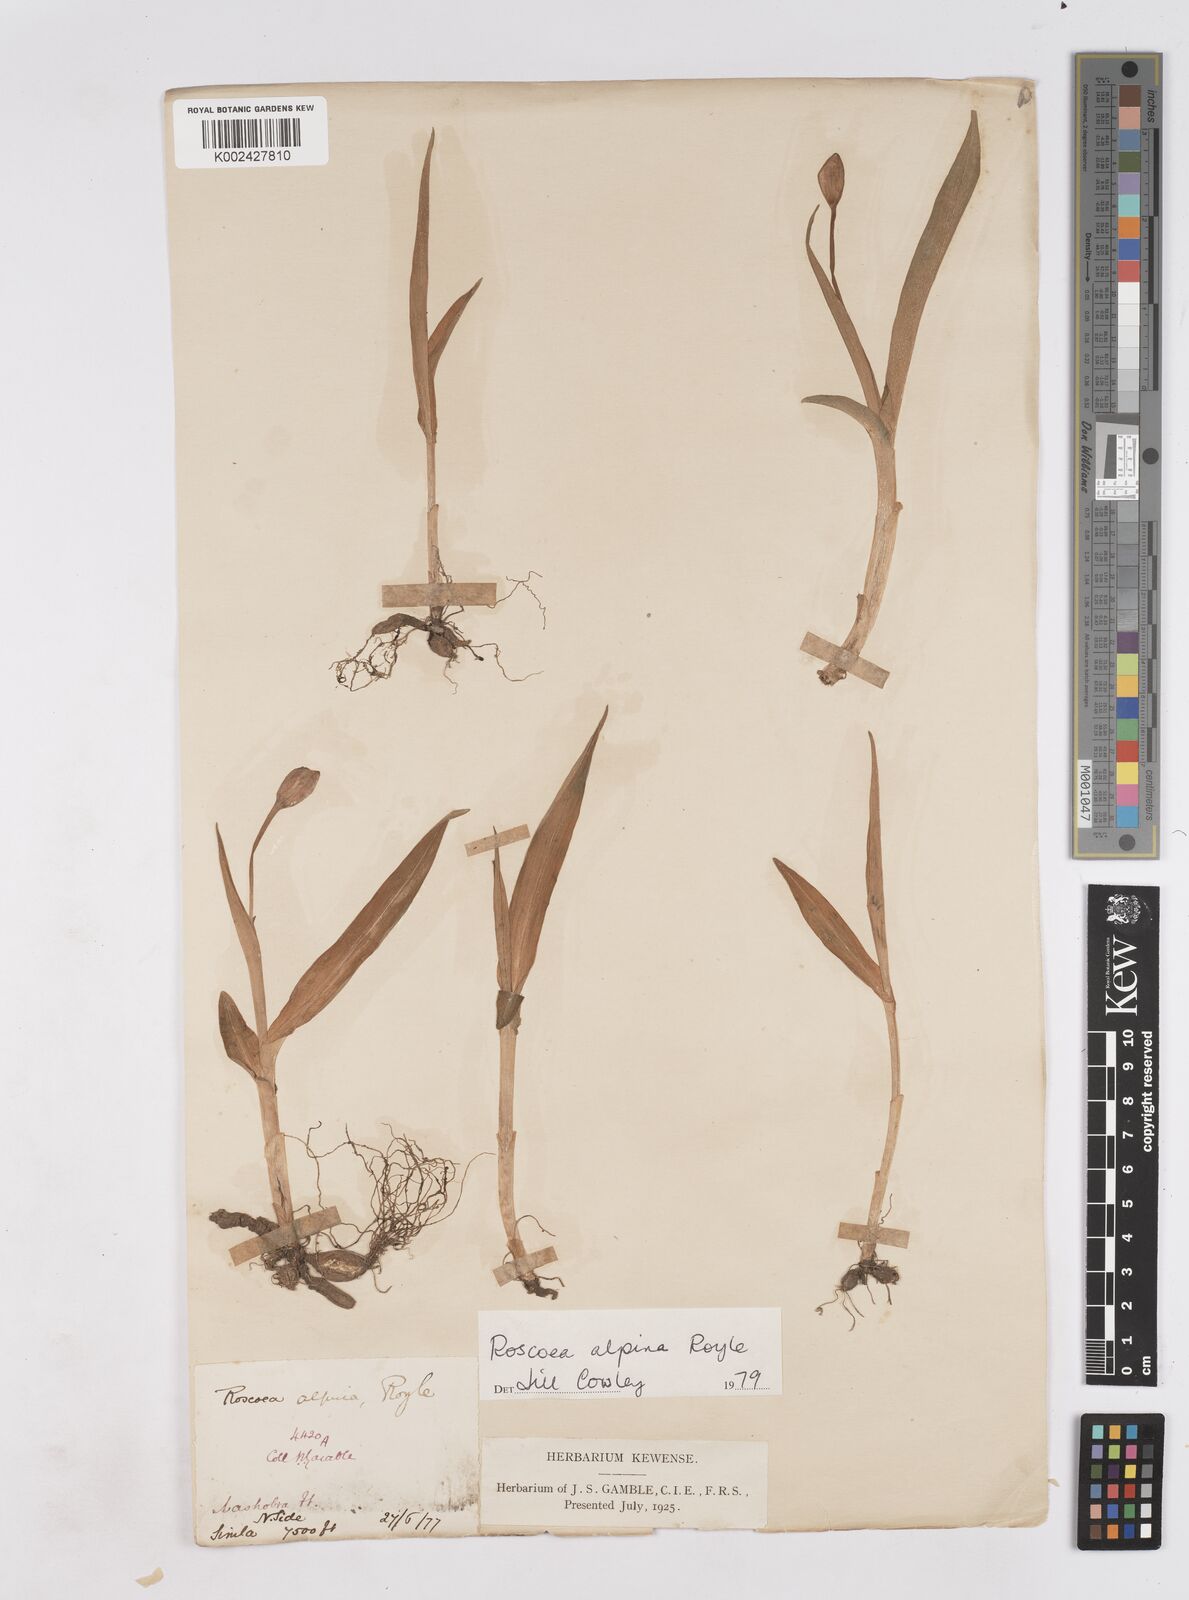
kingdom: Plantae
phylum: Tracheophyta
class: Liliopsida
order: Zingiberales
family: Zingiberaceae
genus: Roscoea
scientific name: Roscoea alpina
